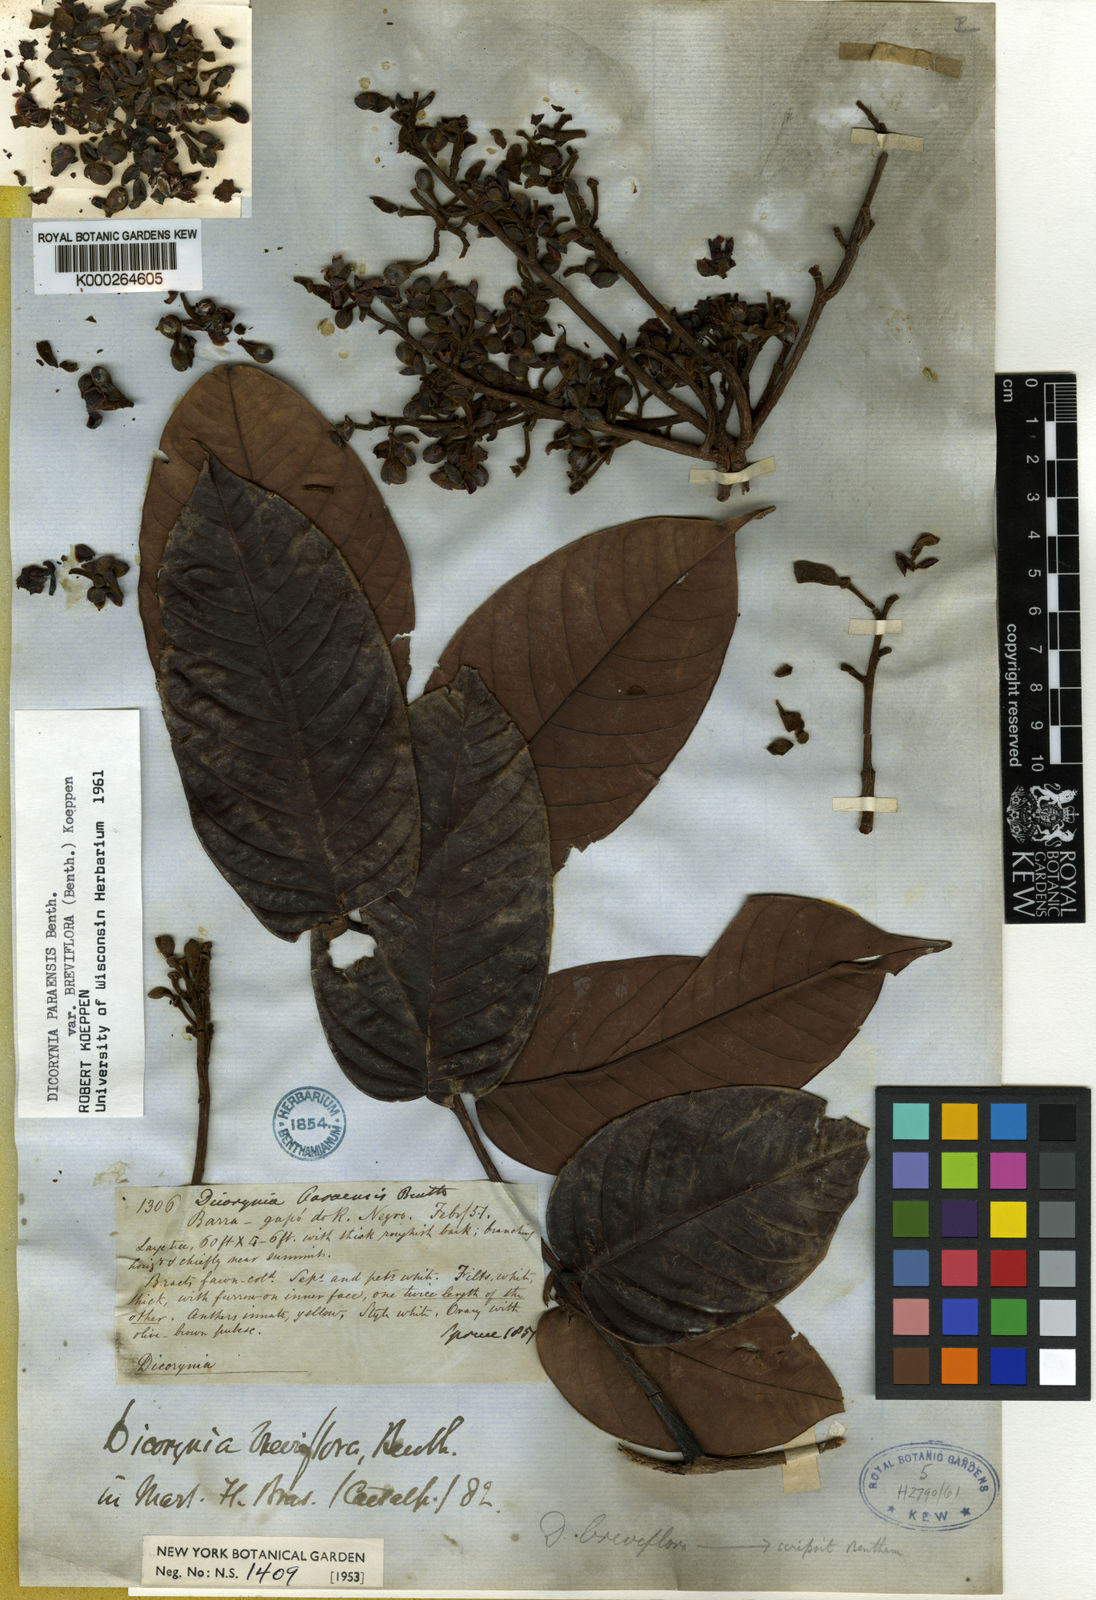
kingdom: Plantae
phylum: Tracheophyta
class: Magnoliopsida
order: Fabales
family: Fabaceae
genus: Dicorynia
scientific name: Dicorynia paraensis
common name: Angelique
